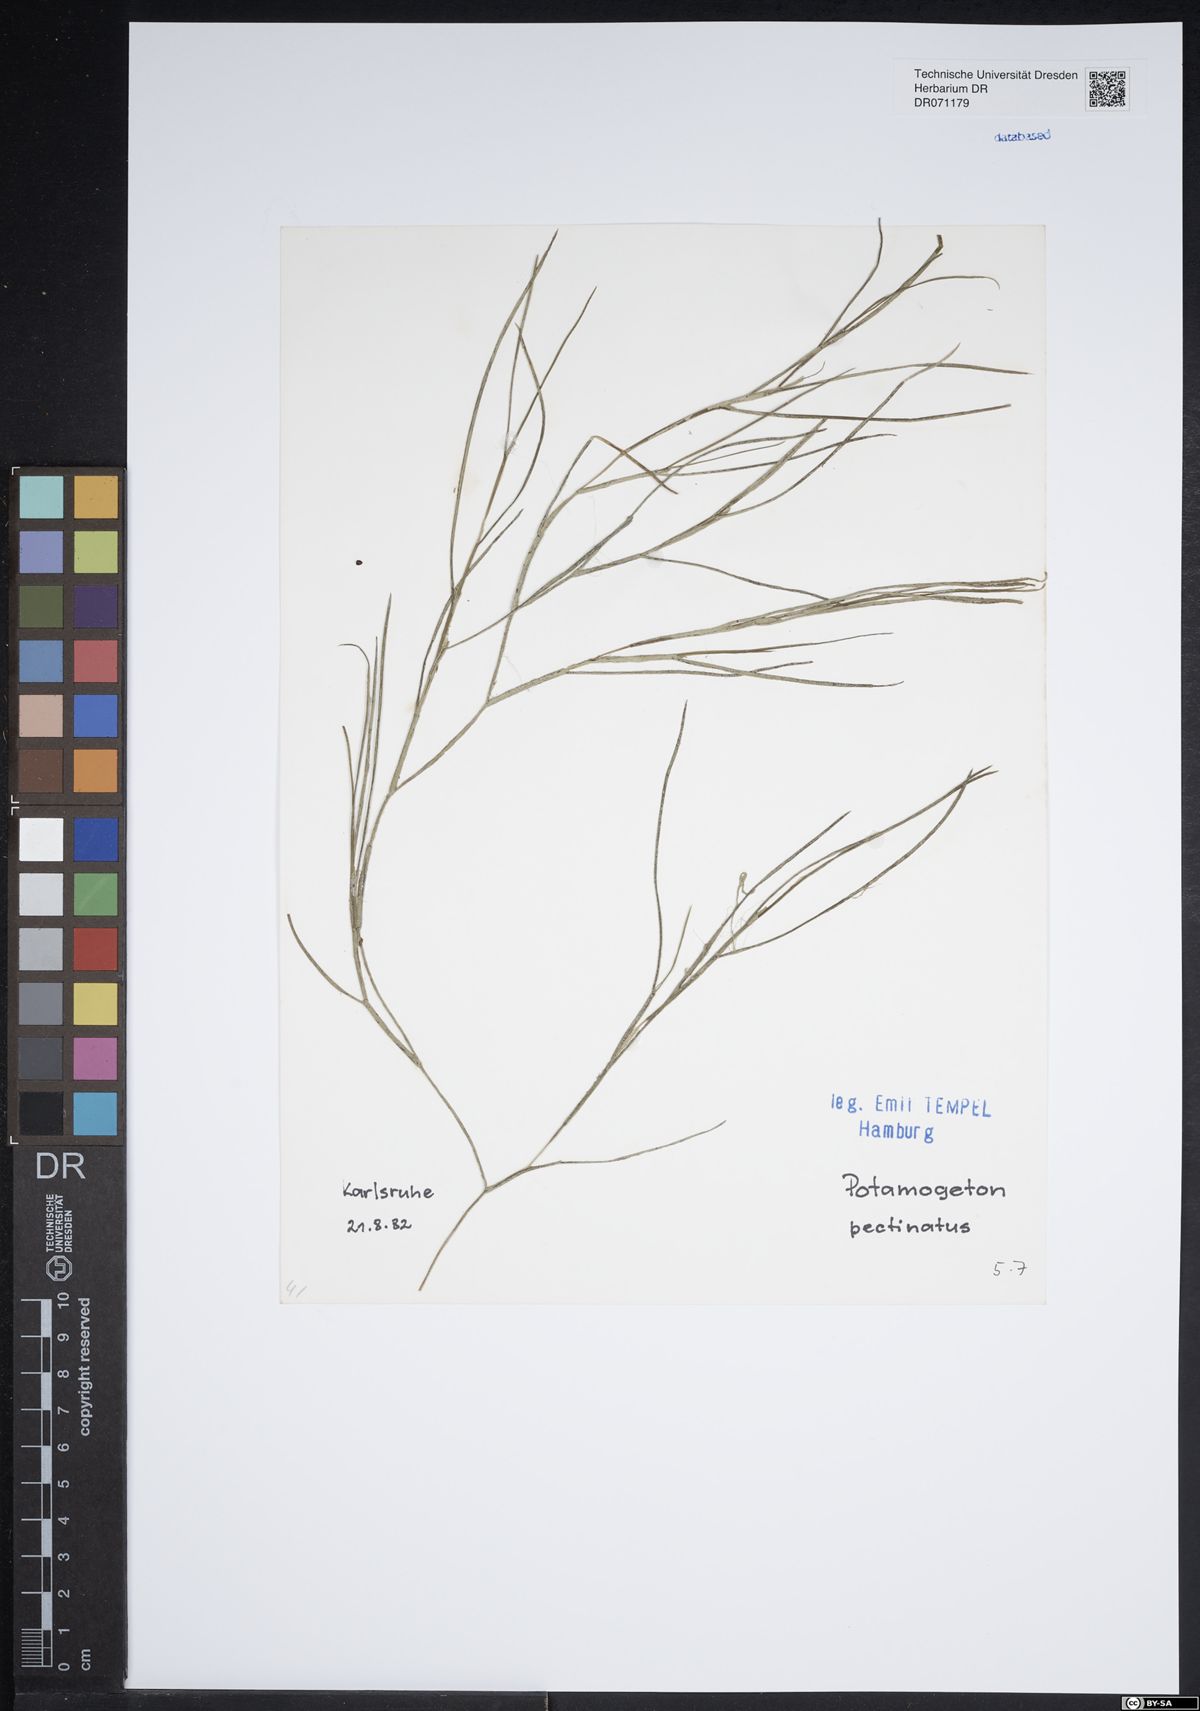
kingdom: Plantae
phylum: Tracheophyta
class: Liliopsida
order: Alismatales
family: Potamogetonaceae
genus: Stuckenia
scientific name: Stuckenia pectinata
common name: Sago pondweed
